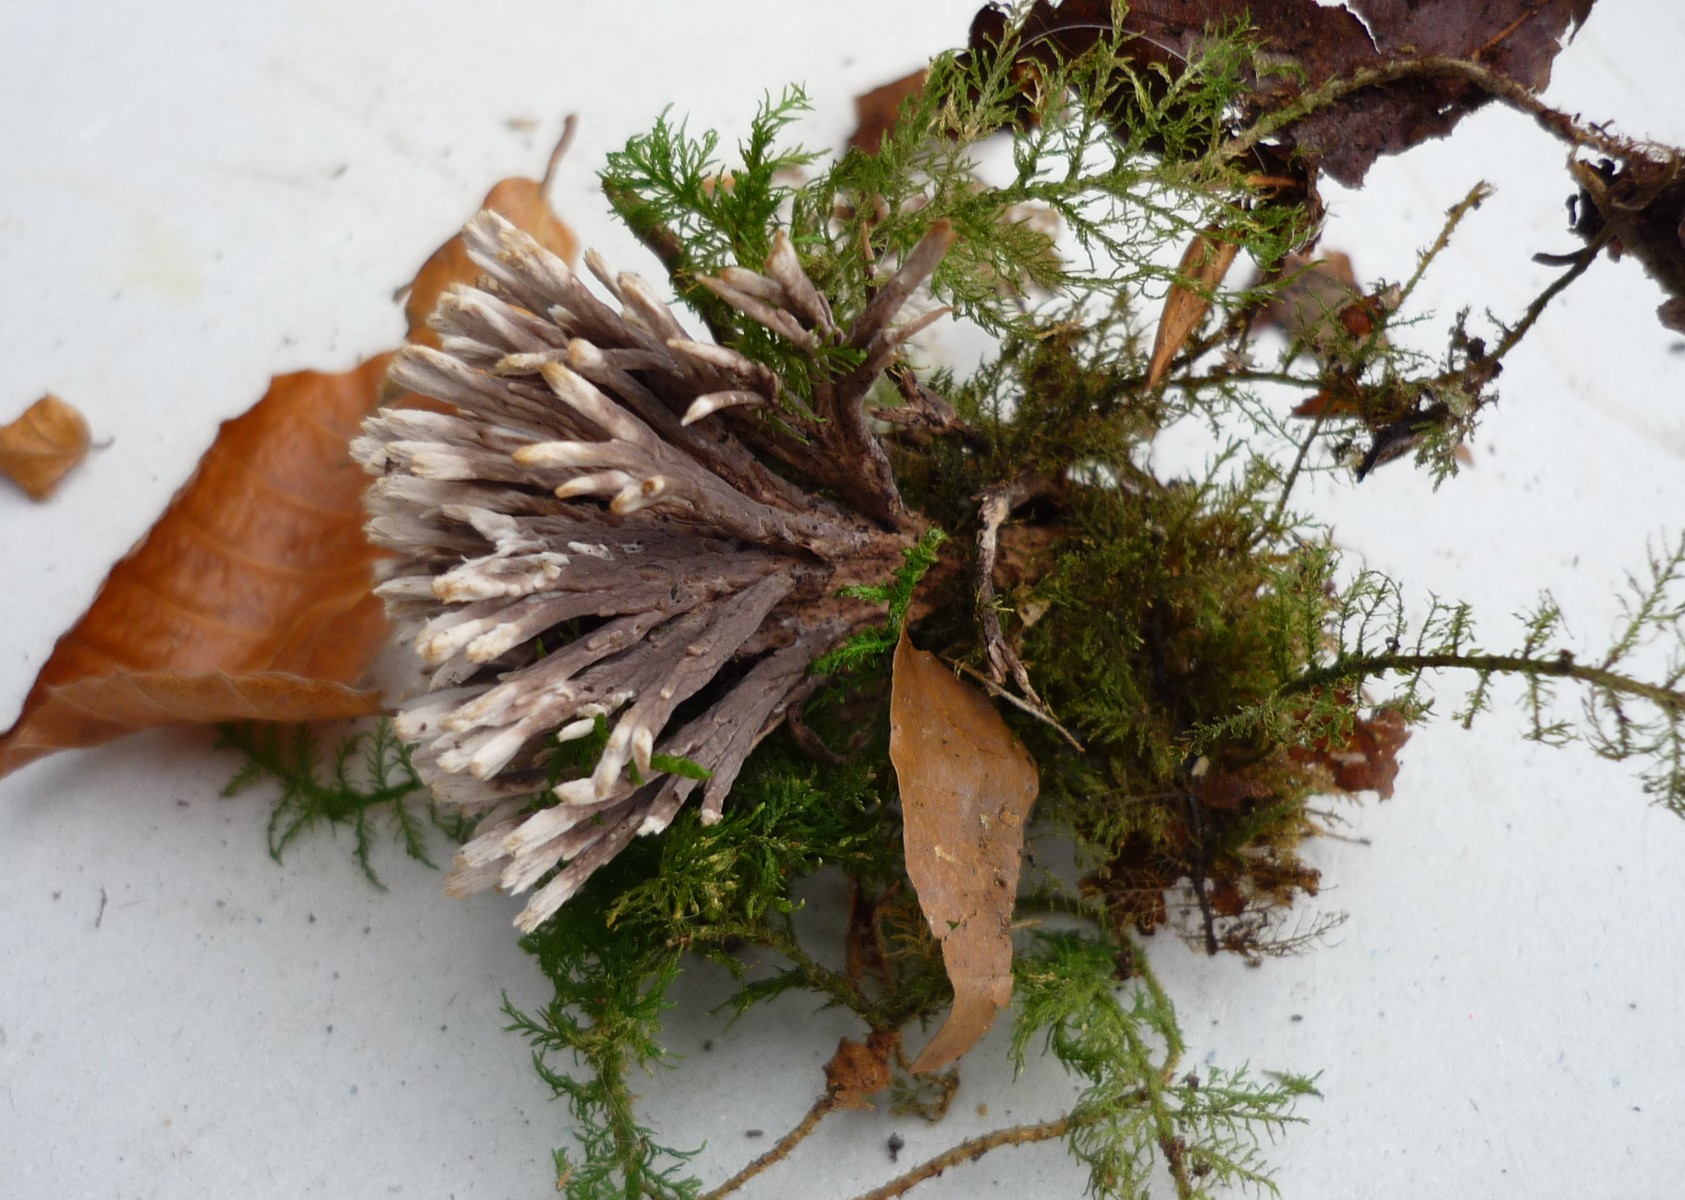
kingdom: Fungi
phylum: Basidiomycota
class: Agaricomycetes
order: Thelephorales
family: Thelephoraceae
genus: Thelephora
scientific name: Thelephora anthocephala
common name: busk-frynsesvamp
